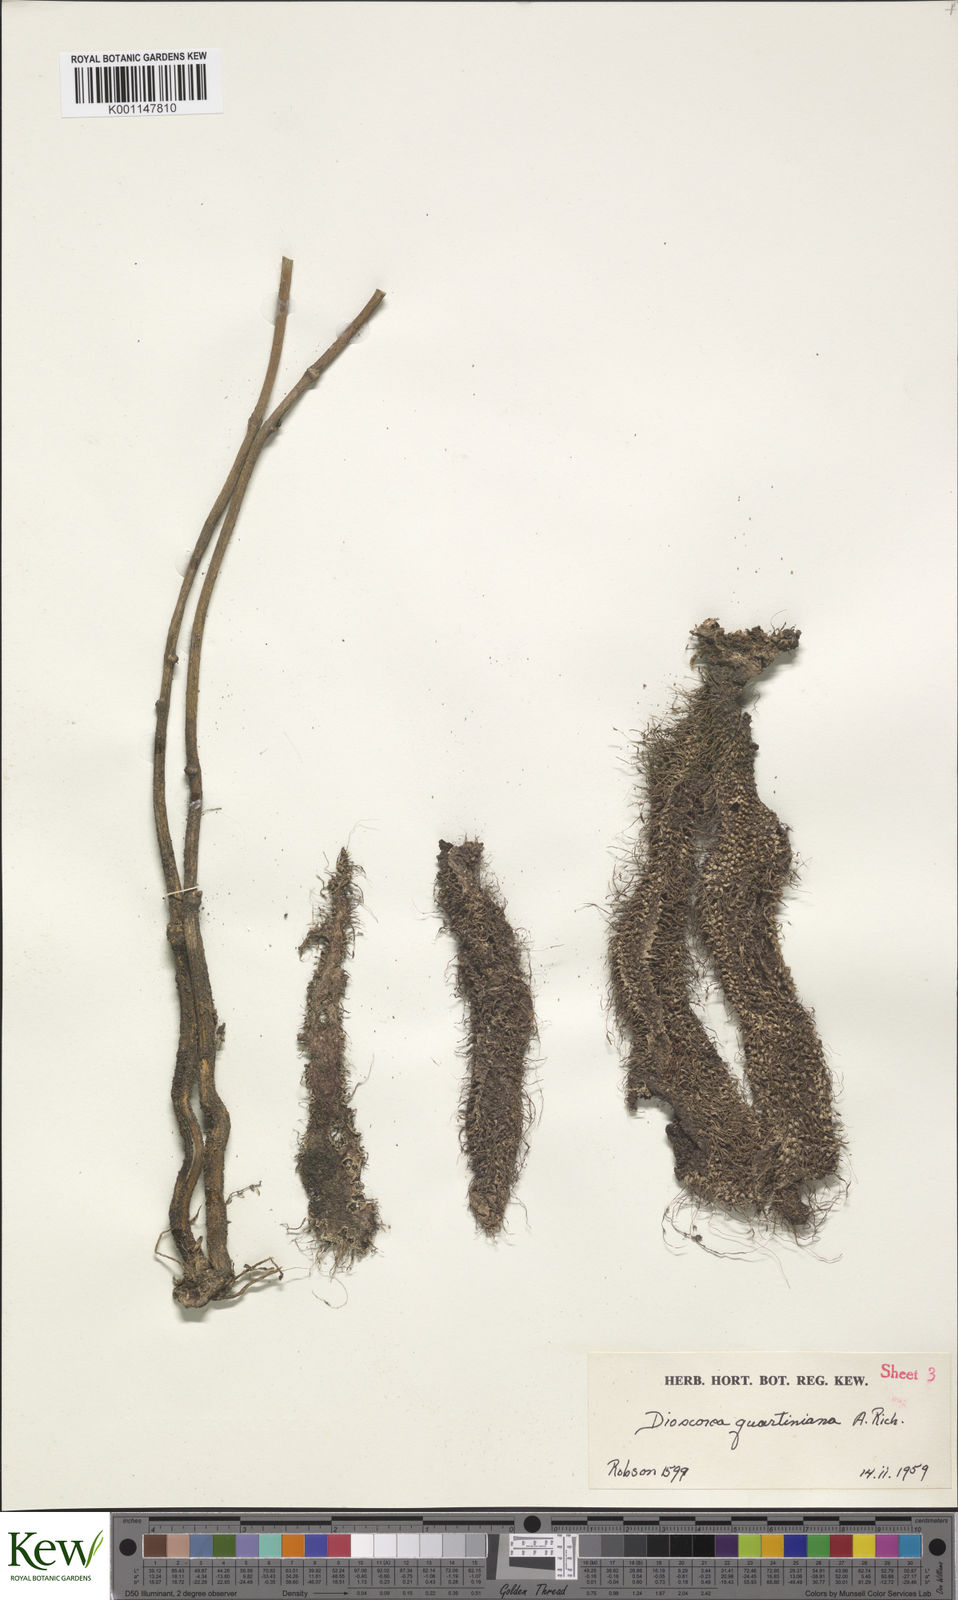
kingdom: Plantae
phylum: Tracheophyta
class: Liliopsida
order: Dioscoreales
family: Dioscoreaceae
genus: Dioscorea
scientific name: Dioscorea quartiniana
